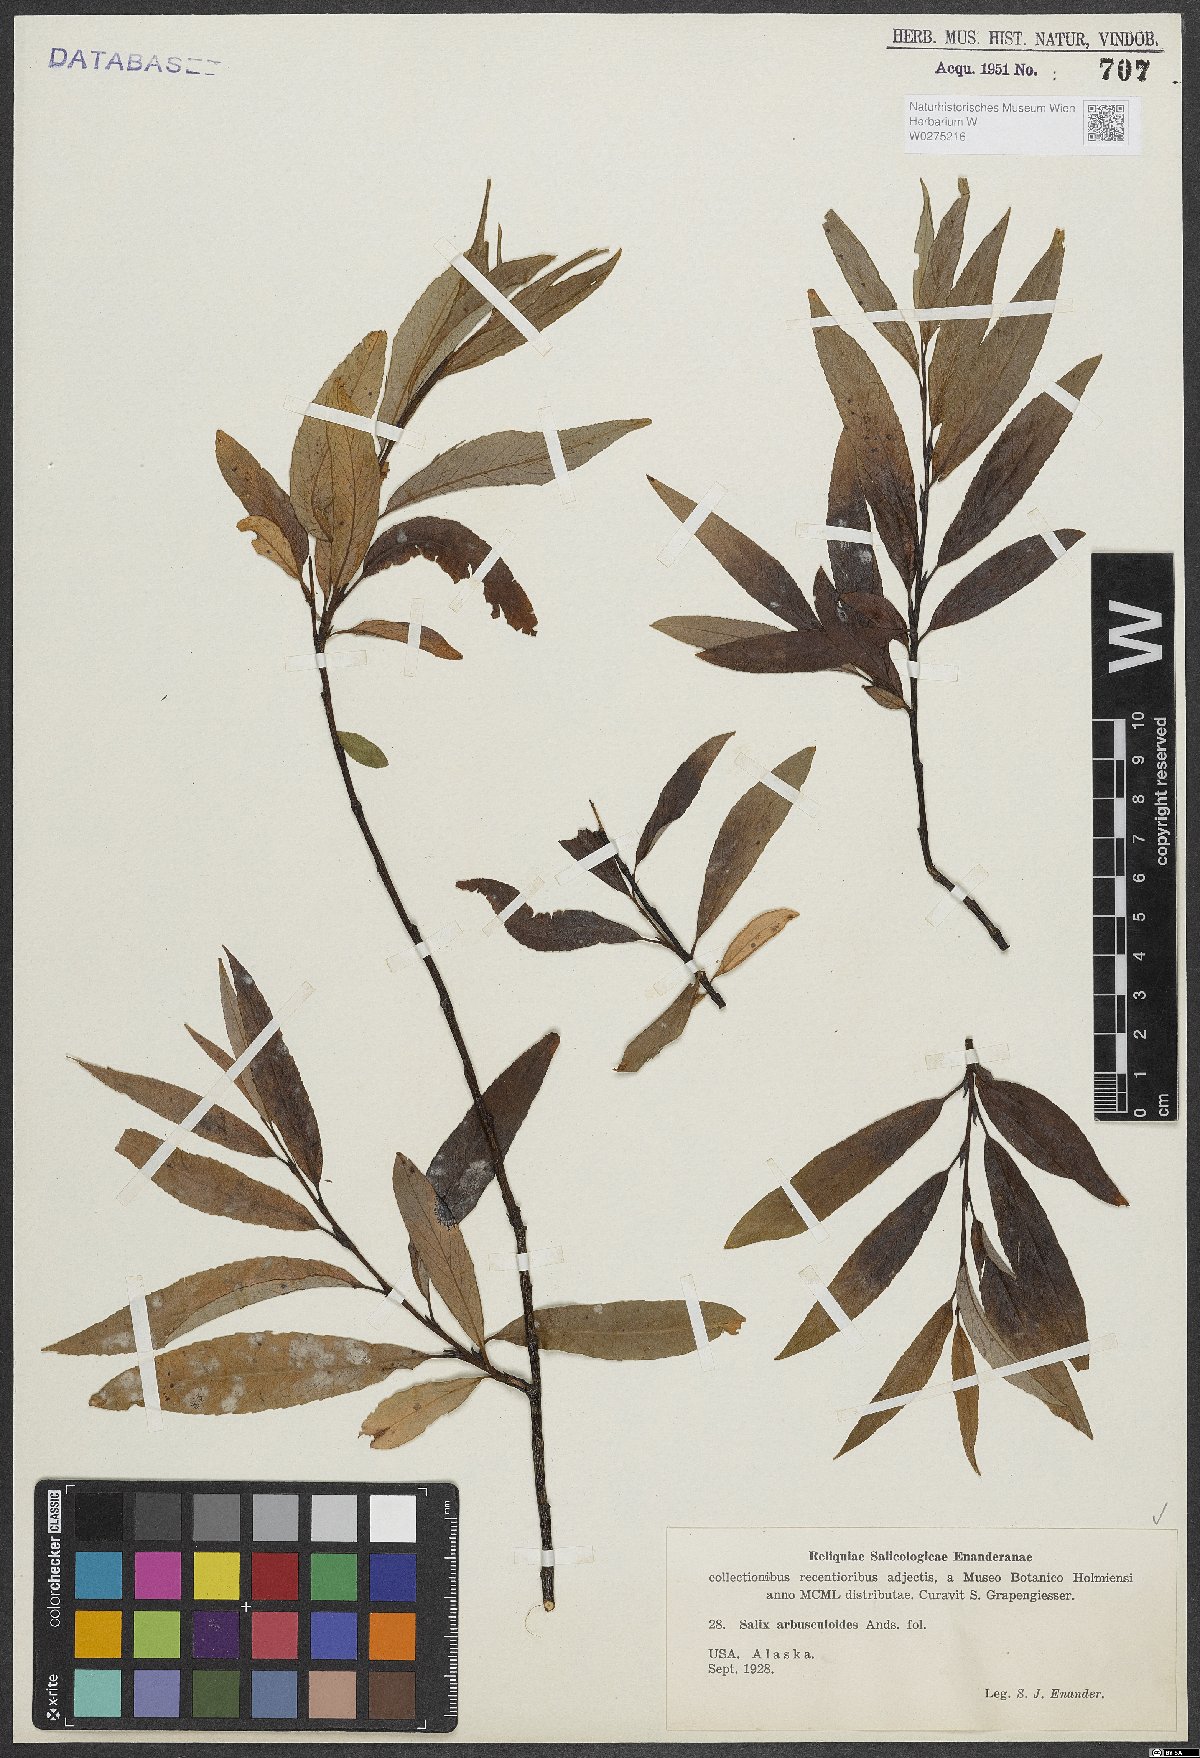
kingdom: Plantae
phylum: Tracheophyta
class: Magnoliopsida
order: Malpighiales
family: Salicaceae
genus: Salix
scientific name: Salix arbusculoides
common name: Little-tree willow
